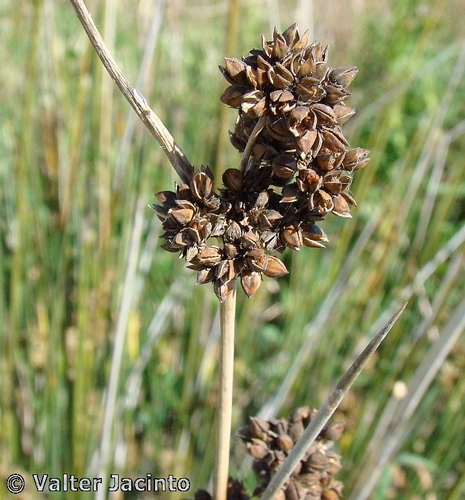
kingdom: Plantae
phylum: Tracheophyta
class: Liliopsida
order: Poales
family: Juncaceae
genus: Juncus
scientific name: Juncus acutus
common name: Sharp rush
